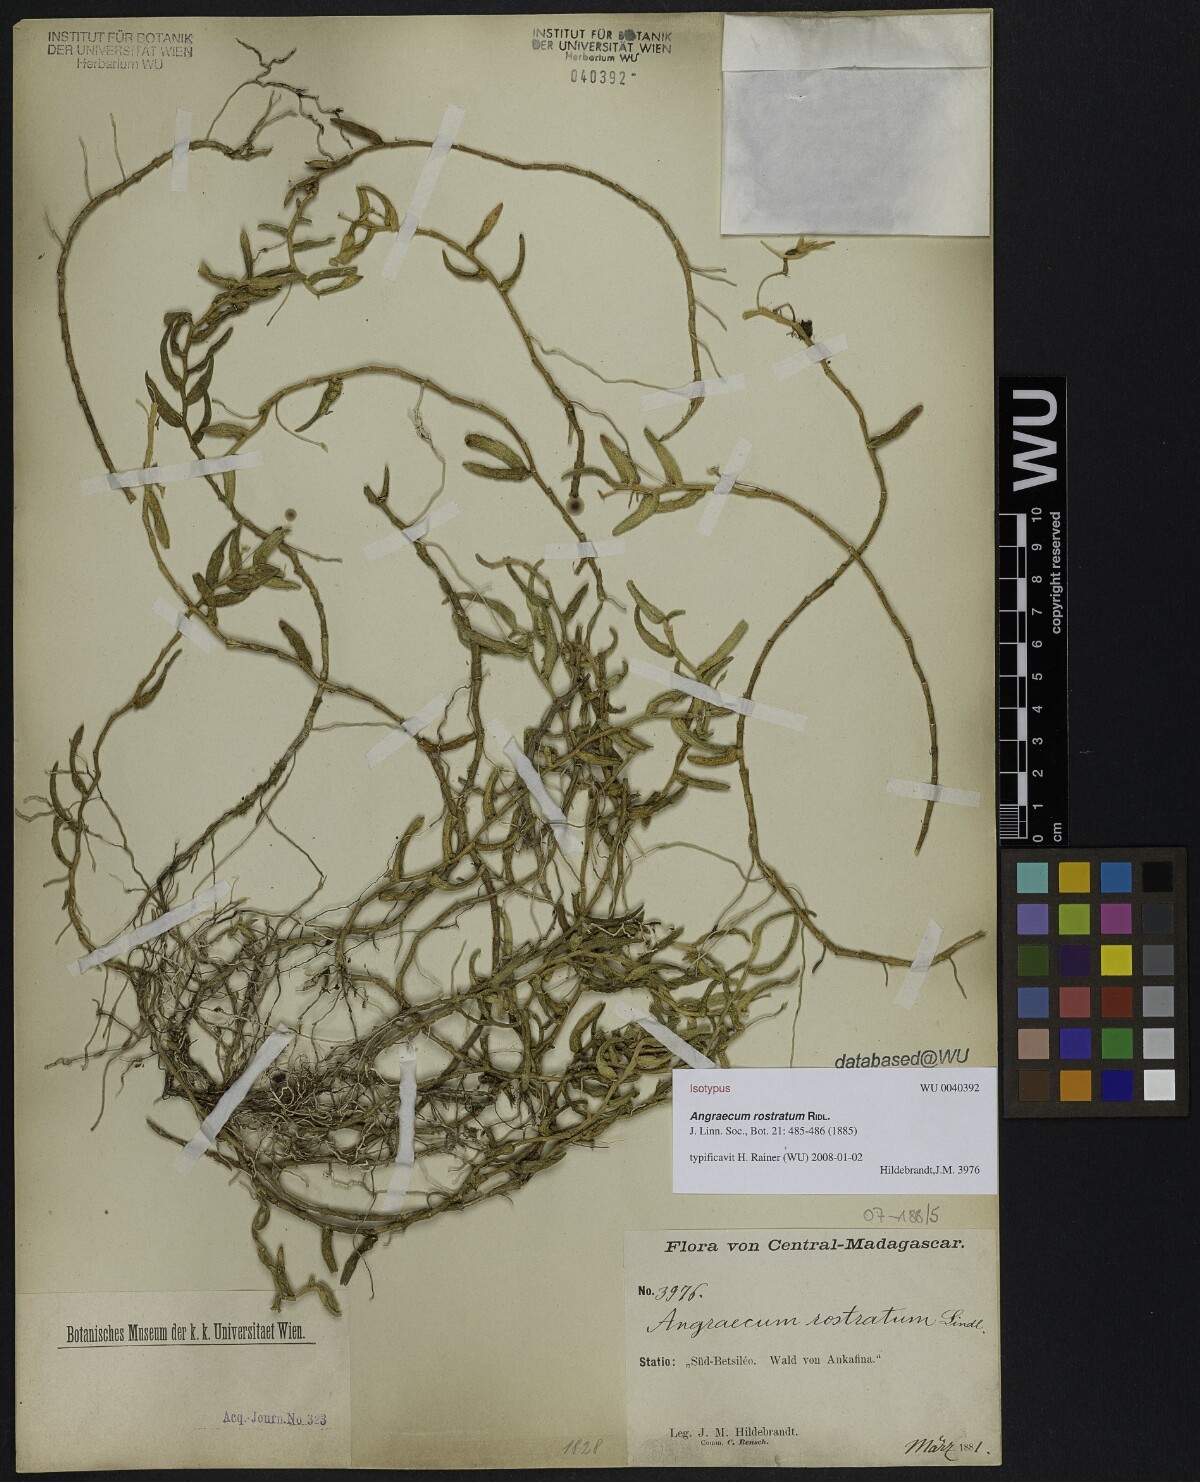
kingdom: Plantae
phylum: Tracheophyta
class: Liliopsida
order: Asparagales
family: Orchidaceae
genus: Angraecum
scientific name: Angraecum rostratum
